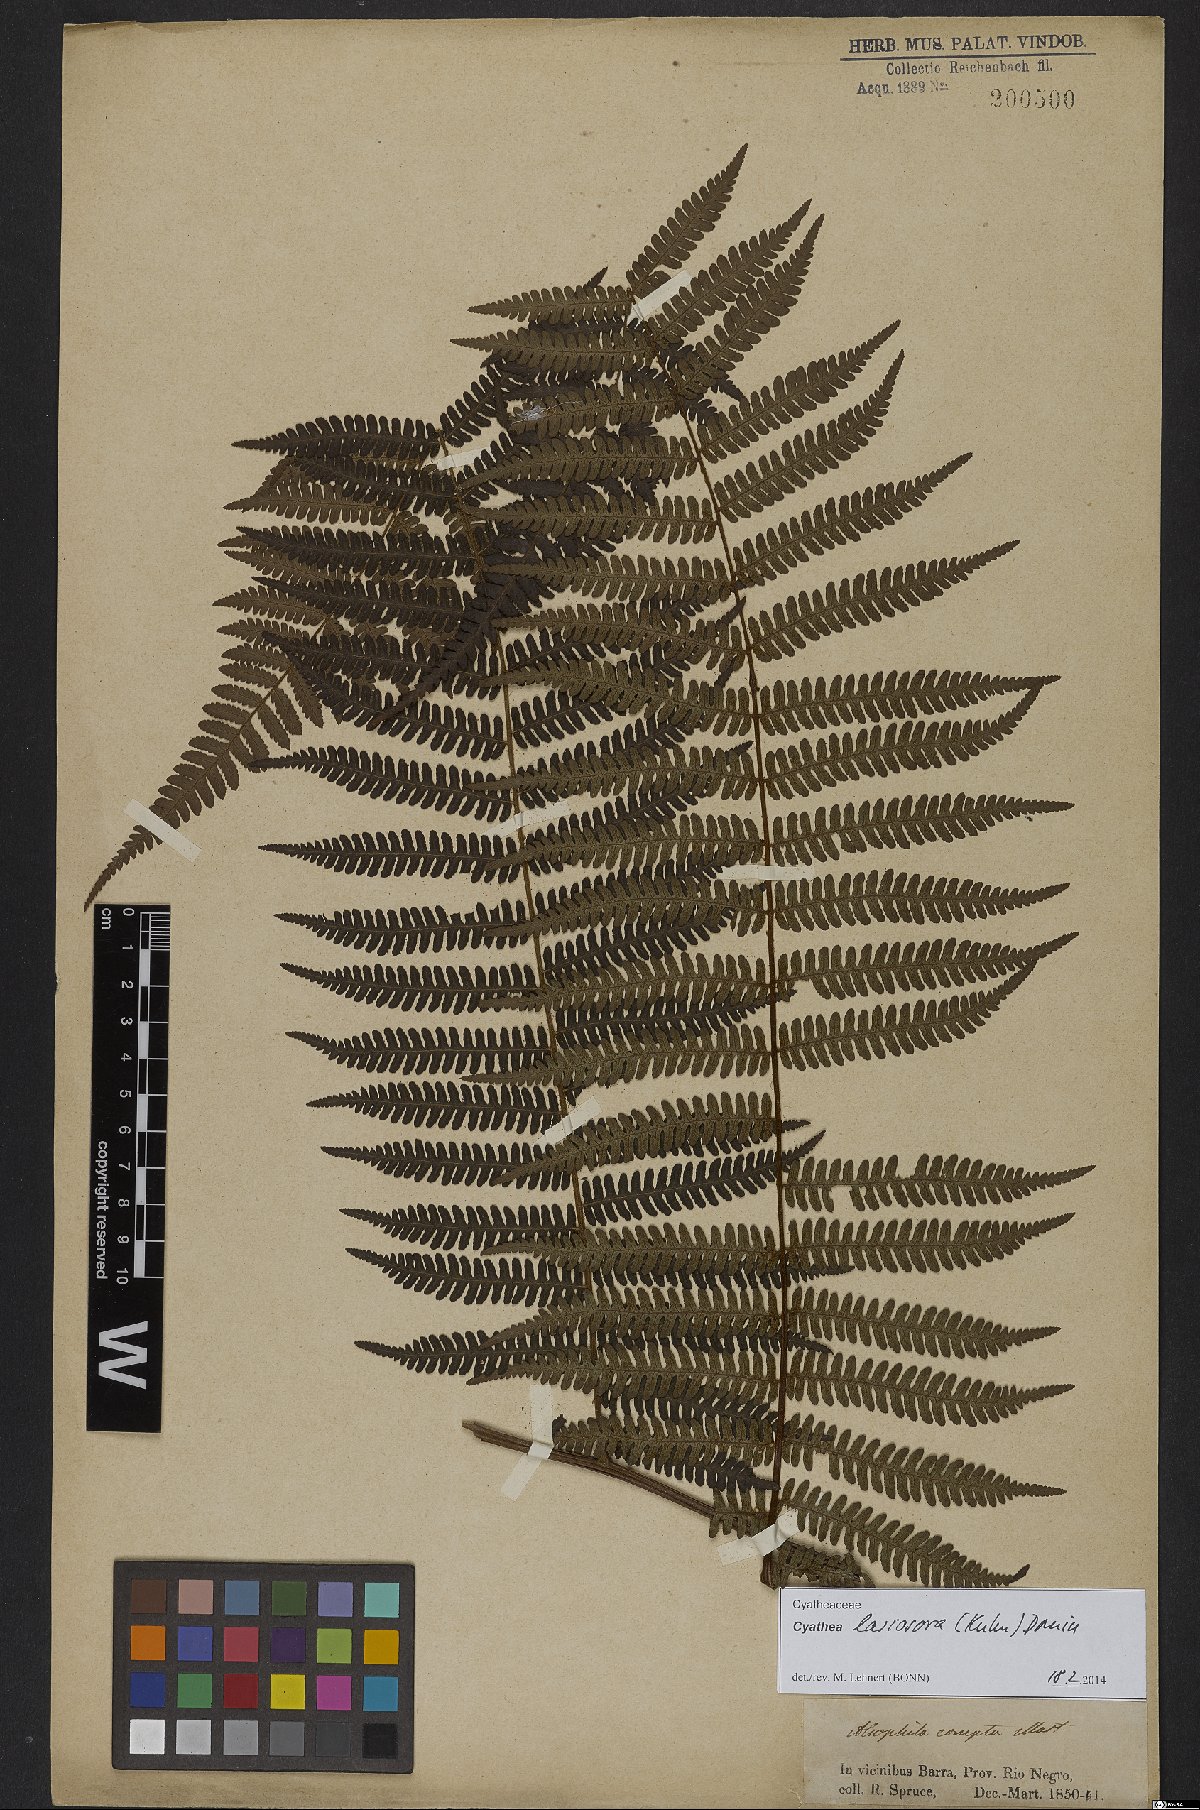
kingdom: Plantae
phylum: Tracheophyta
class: Polypodiopsida
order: Cyatheales
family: Cyatheaceae
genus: Cyathea
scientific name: Cyathea lasiosora
